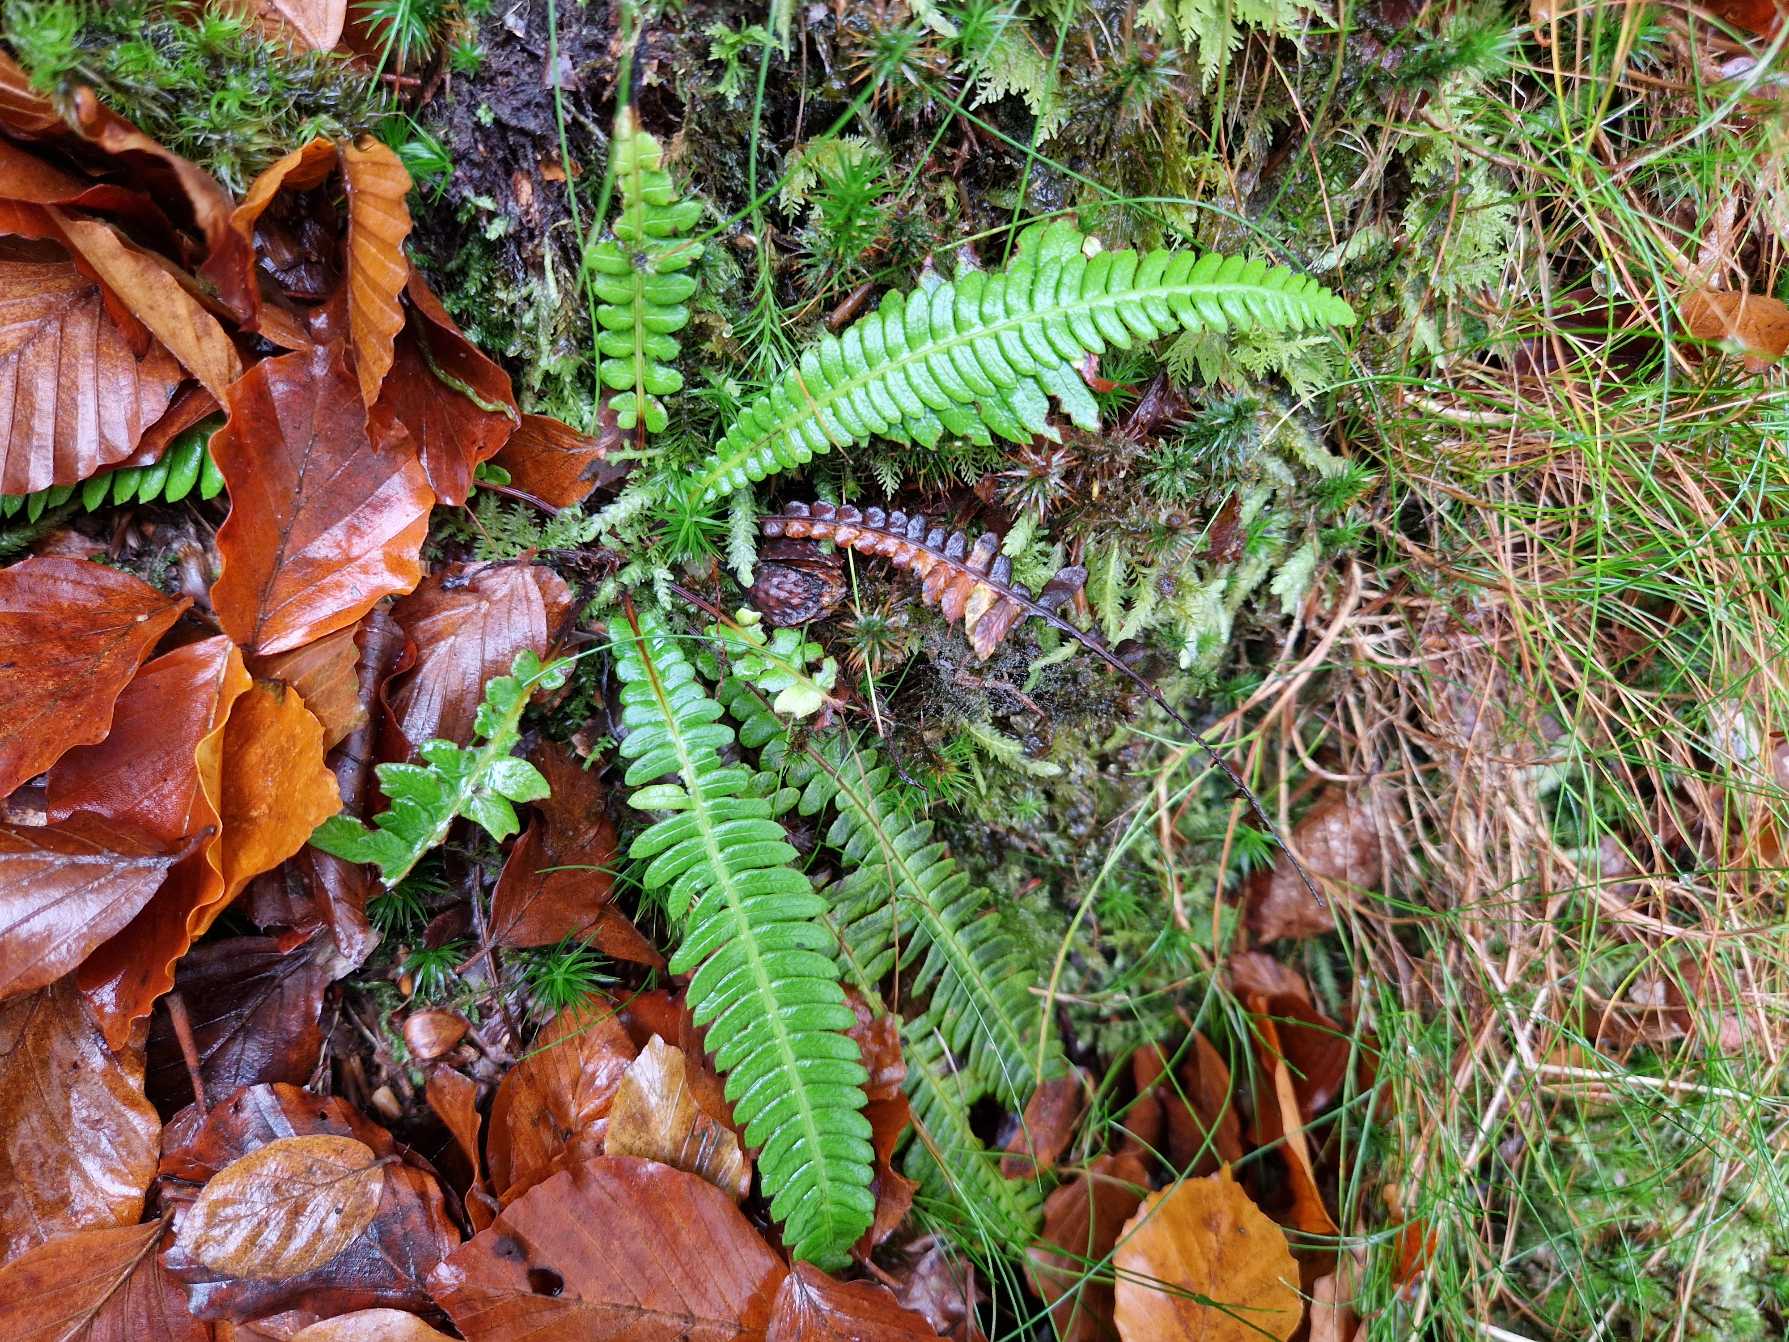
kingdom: Plantae
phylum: Tracheophyta
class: Polypodiopsida
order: Polypodiales
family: Blechnaceae
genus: Struthiopteris
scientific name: Struthiopteris spicant
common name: Kambregne
